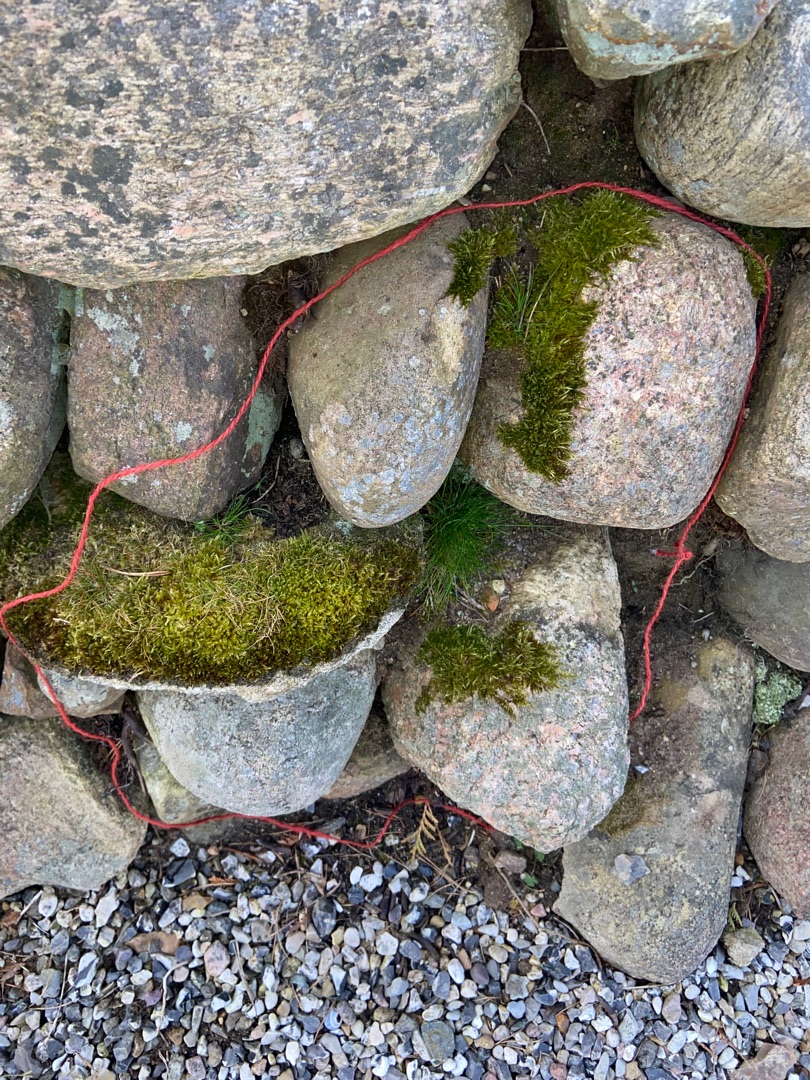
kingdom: Plantae
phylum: Bryophyta
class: Bryopsida
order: Hypnales
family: Hypnaceae
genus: Hypnum
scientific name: Hypnum cupressiforme
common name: Almindelig cypresmos
